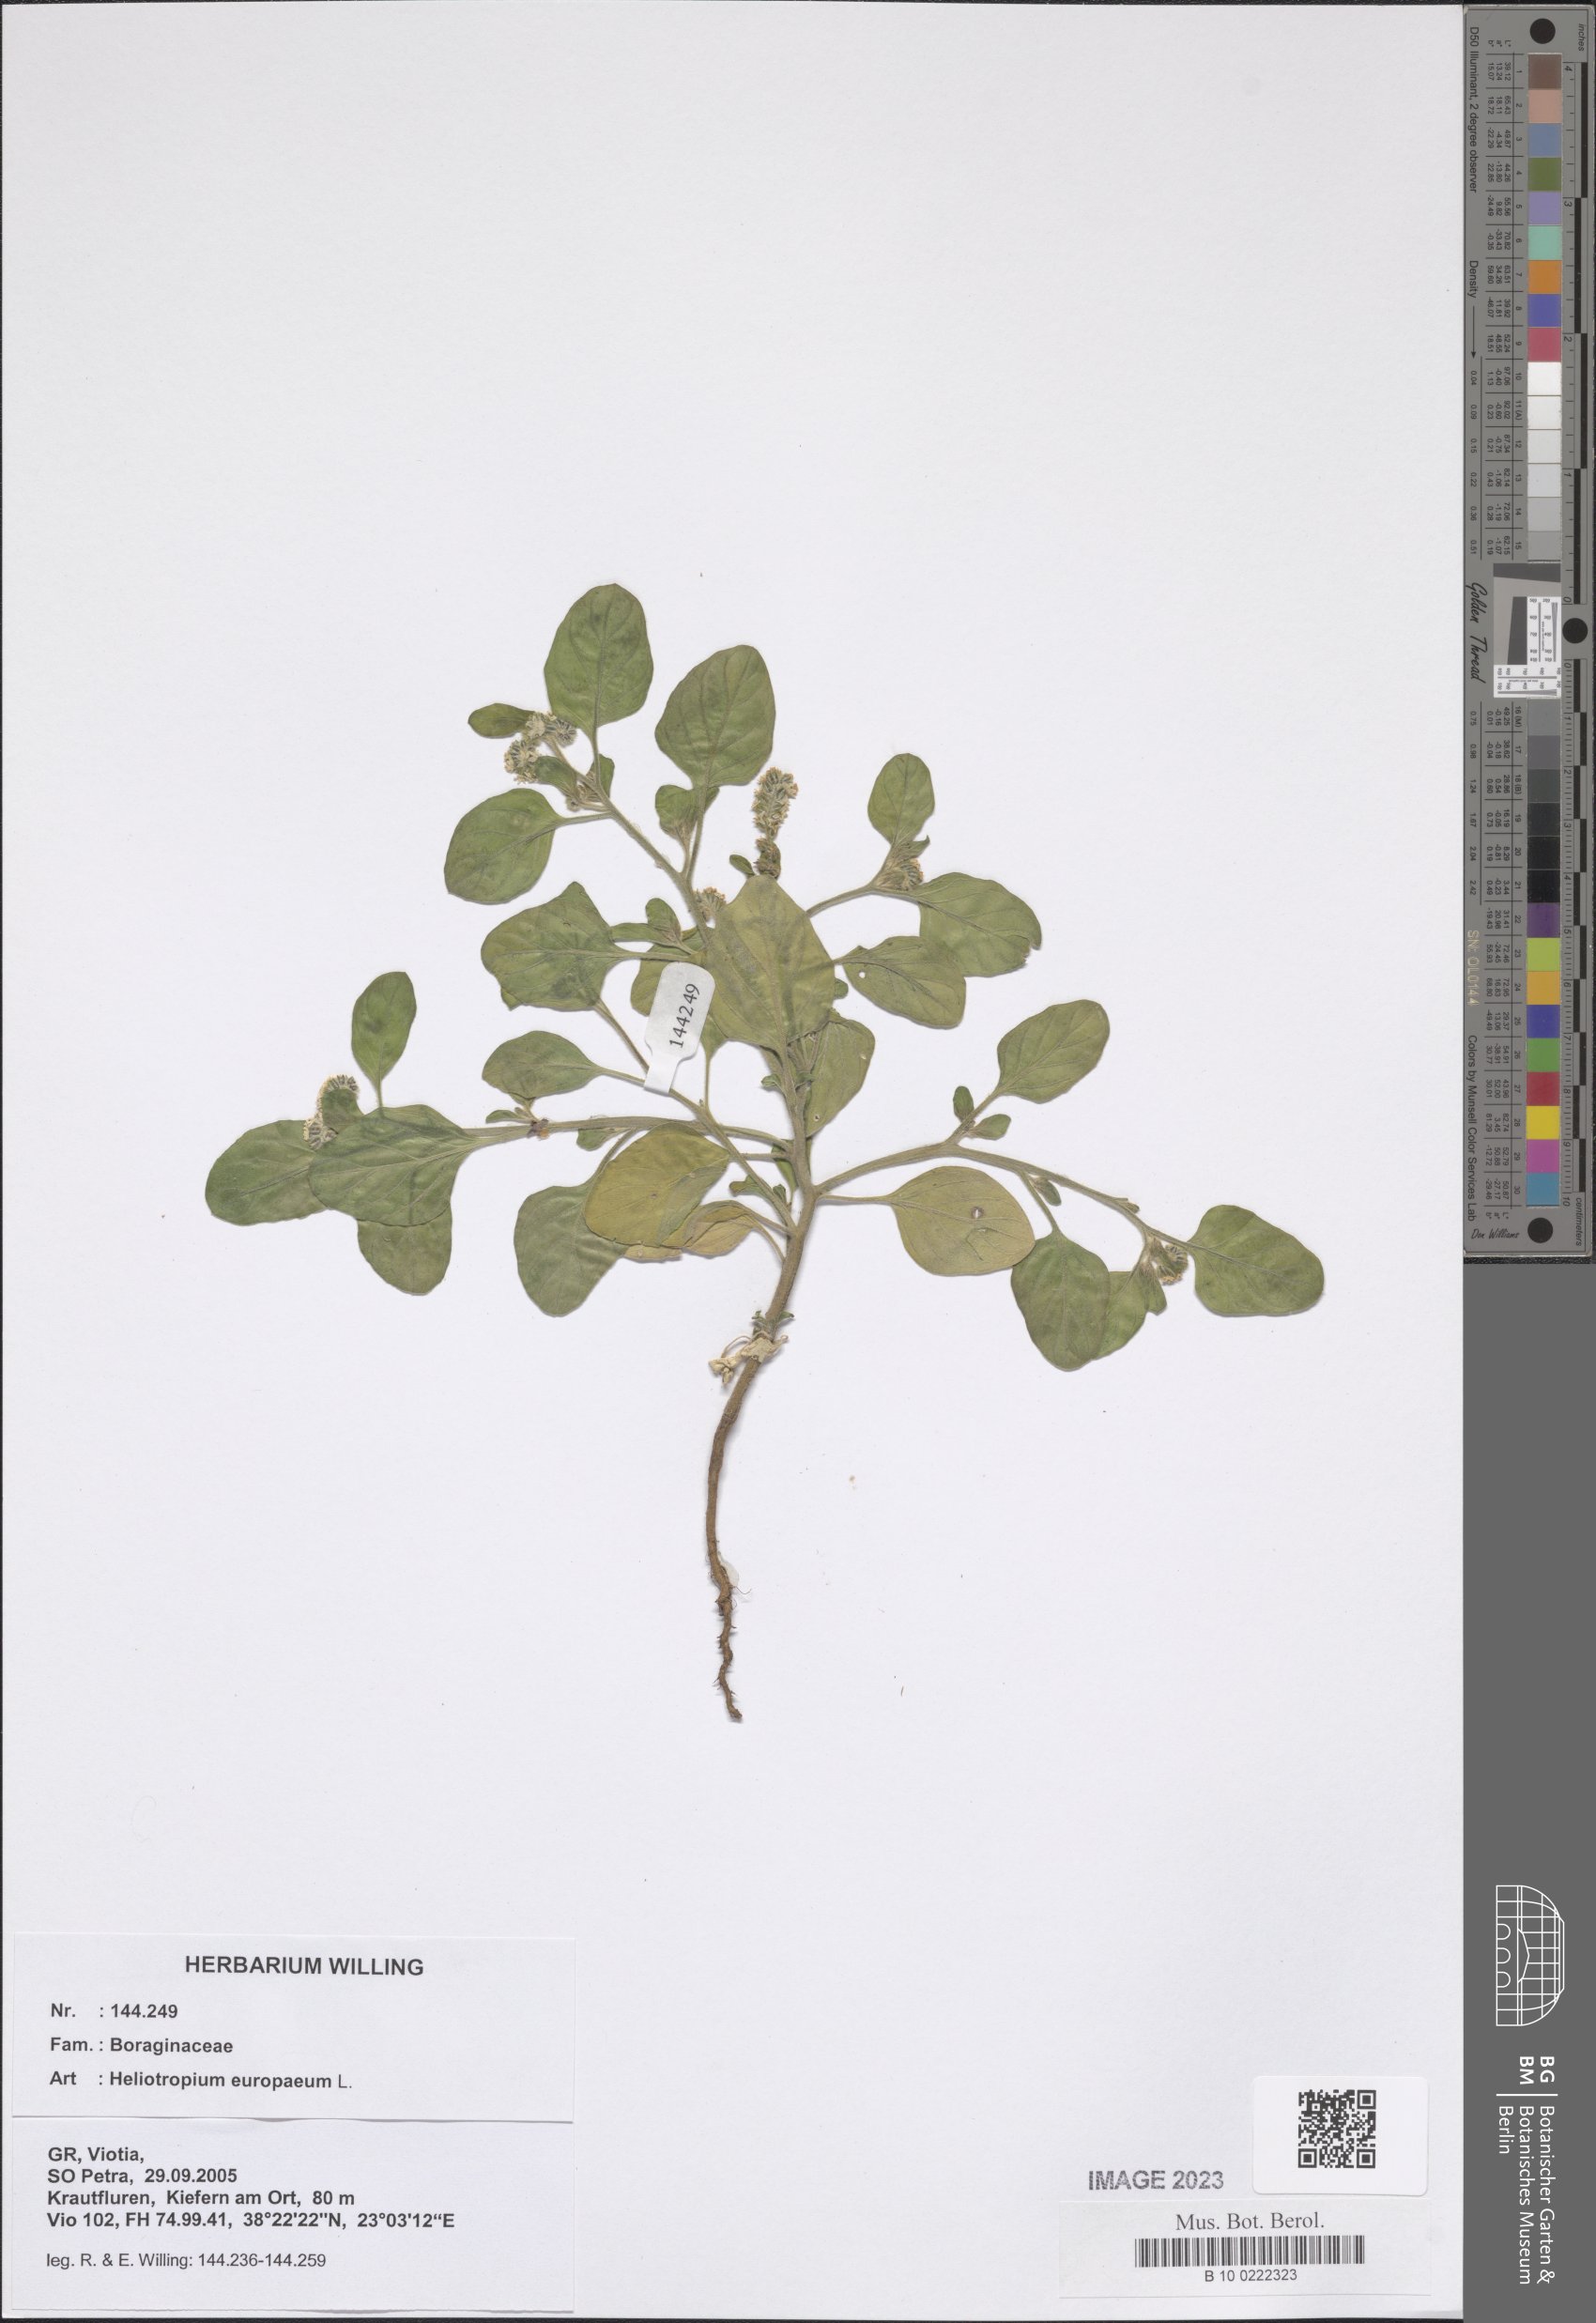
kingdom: Plantae
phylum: Tracheophyta
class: Magnoliopsida
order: Boraginales
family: Heliotropiaceae
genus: Heliotropium
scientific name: Heliotropium europaeum
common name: European heliotrope
